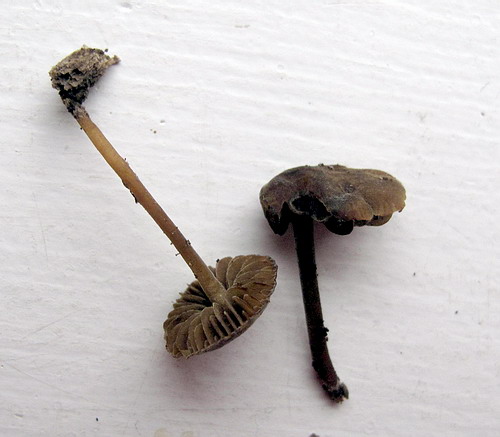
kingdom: Fungi
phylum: Basidiomycota
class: Agaricomycetes
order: Agaricales
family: Crepidotaceae
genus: Simocybe
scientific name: Simocybe centunculus
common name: enlig skyggehat
